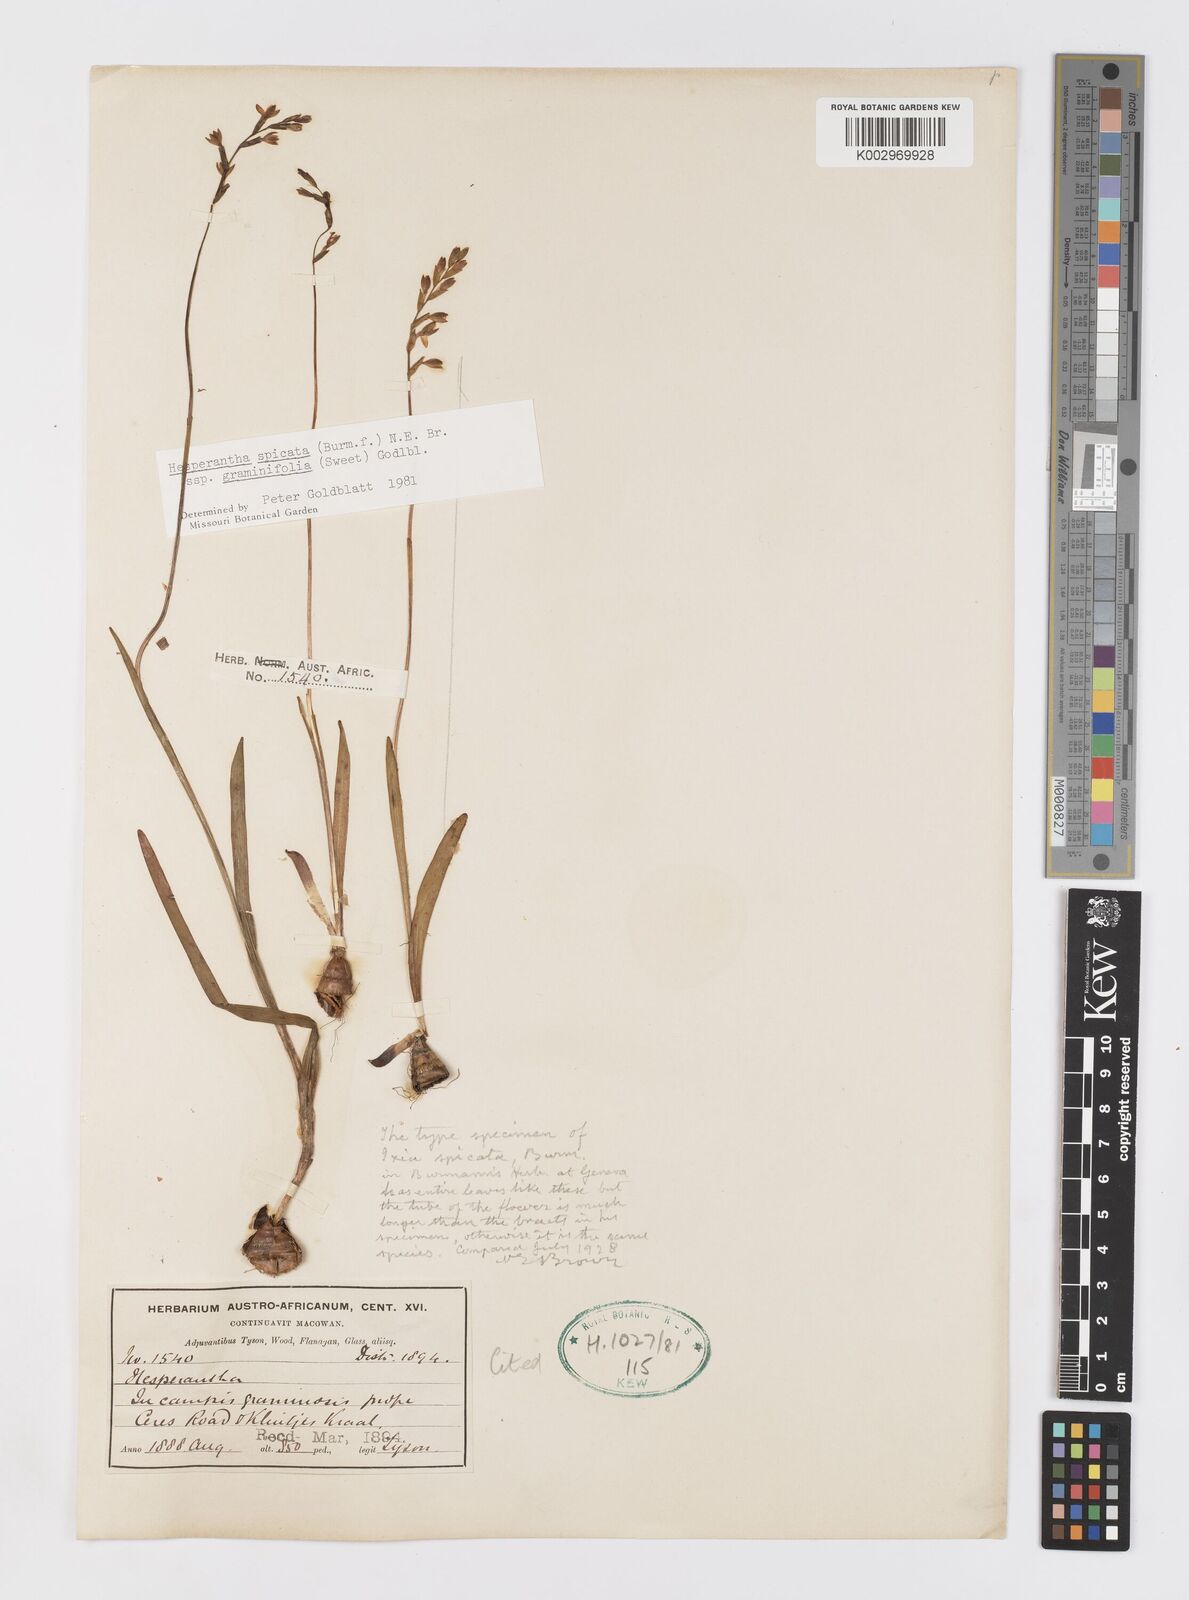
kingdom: Plantae
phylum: Tracheophyta
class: Liliopsida
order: Asparagales
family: Iridaceae
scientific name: Iridaceae
